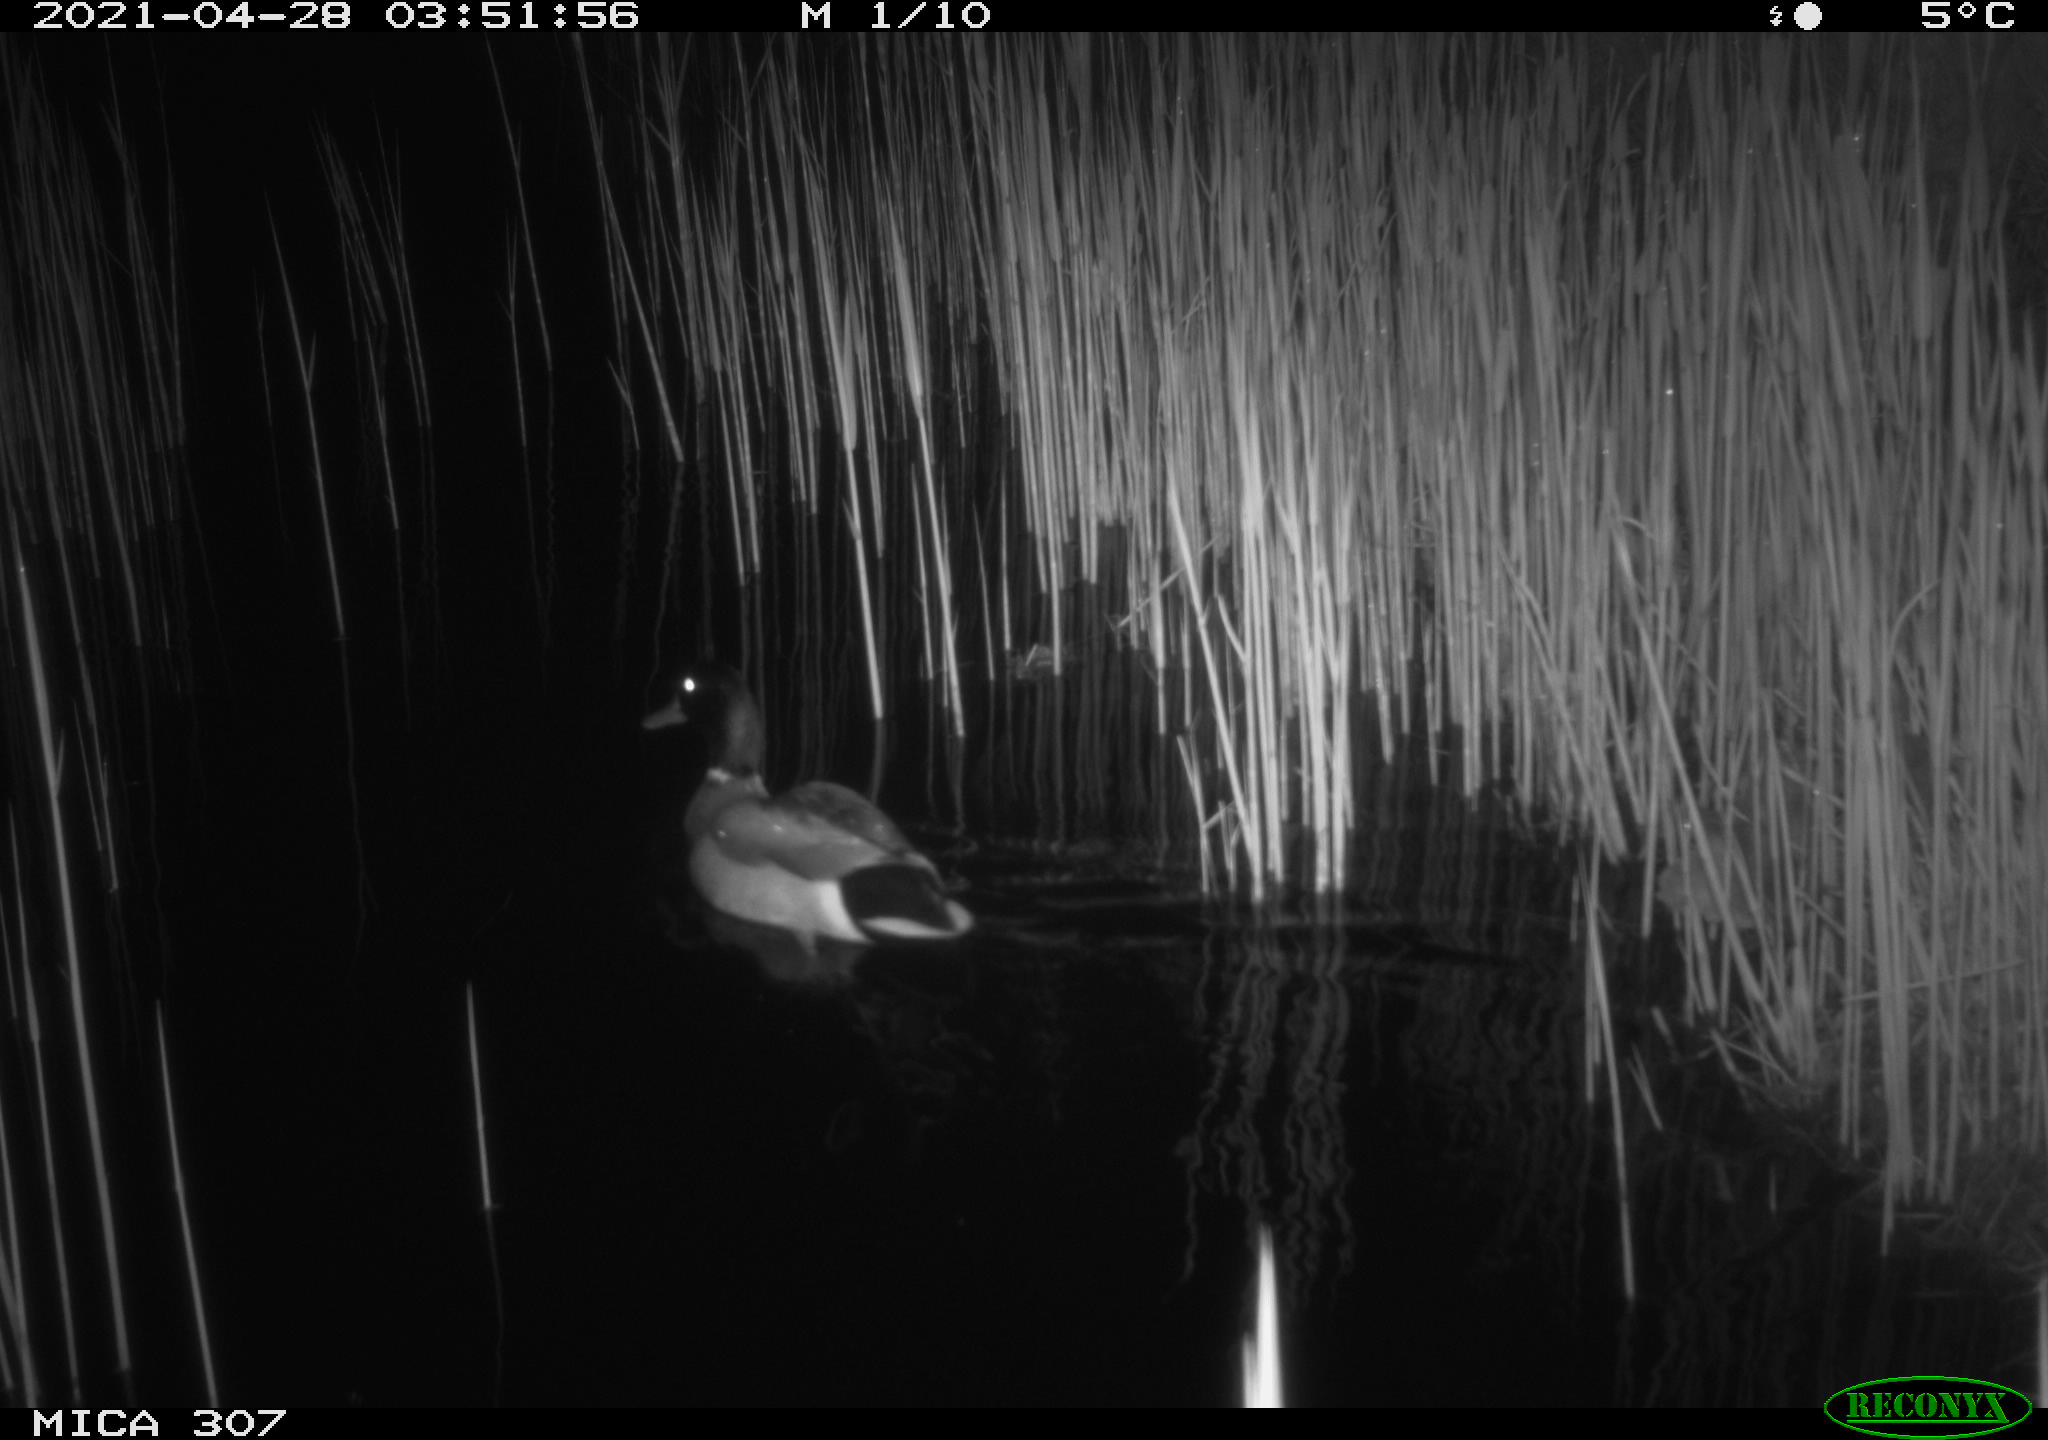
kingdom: Animalia
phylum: Chordata
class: Aves
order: Anseriformes
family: Anatidae
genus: Anas
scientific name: Anas platyrhynchos
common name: Mallard
